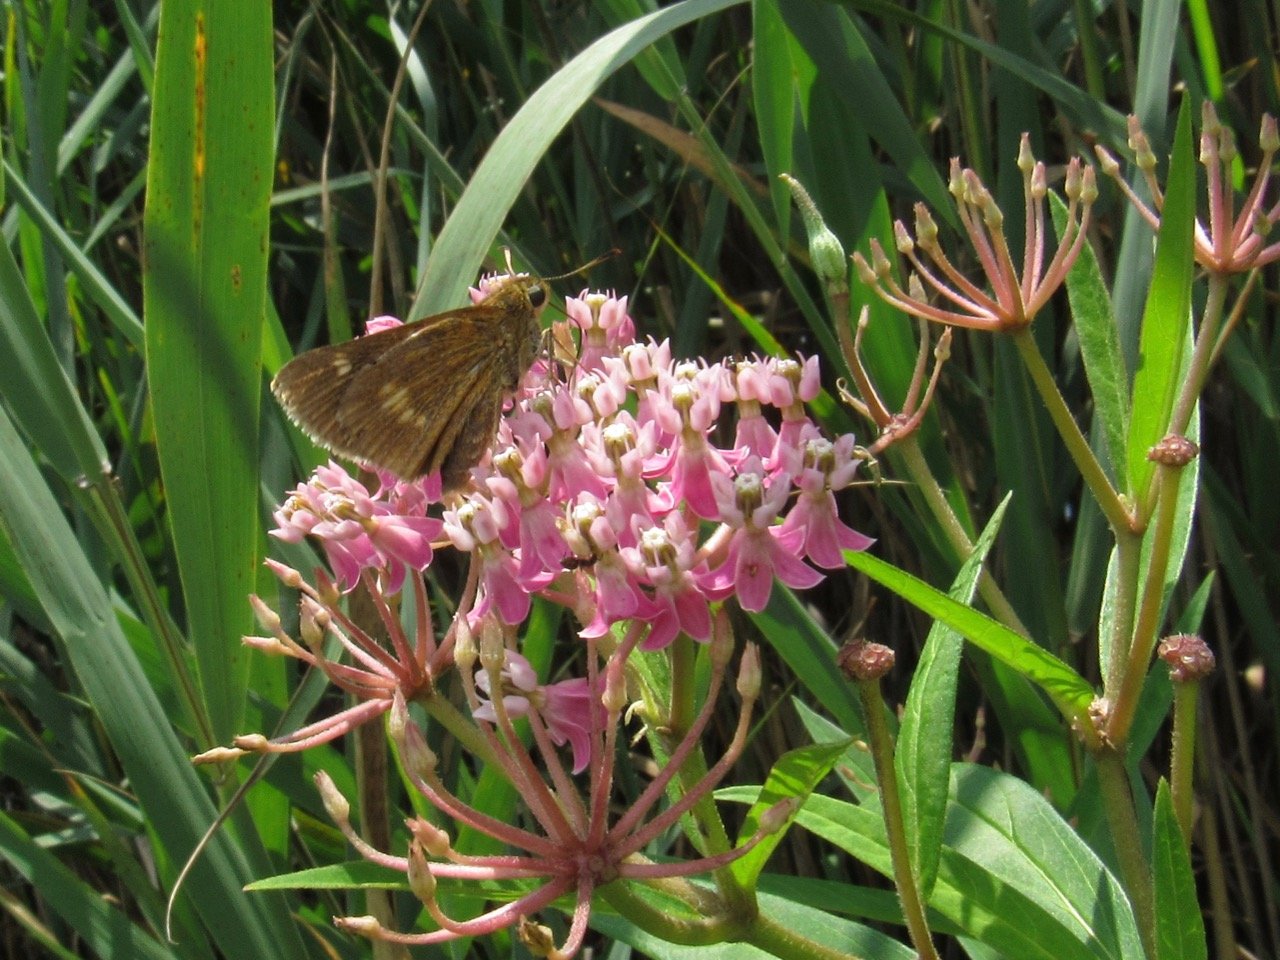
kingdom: Animalia
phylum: Arthropoda
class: Insecta
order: Lepidoptera
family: Hesperiidae
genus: Polites
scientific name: Polites egeremet
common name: Northern Broken-Dash
